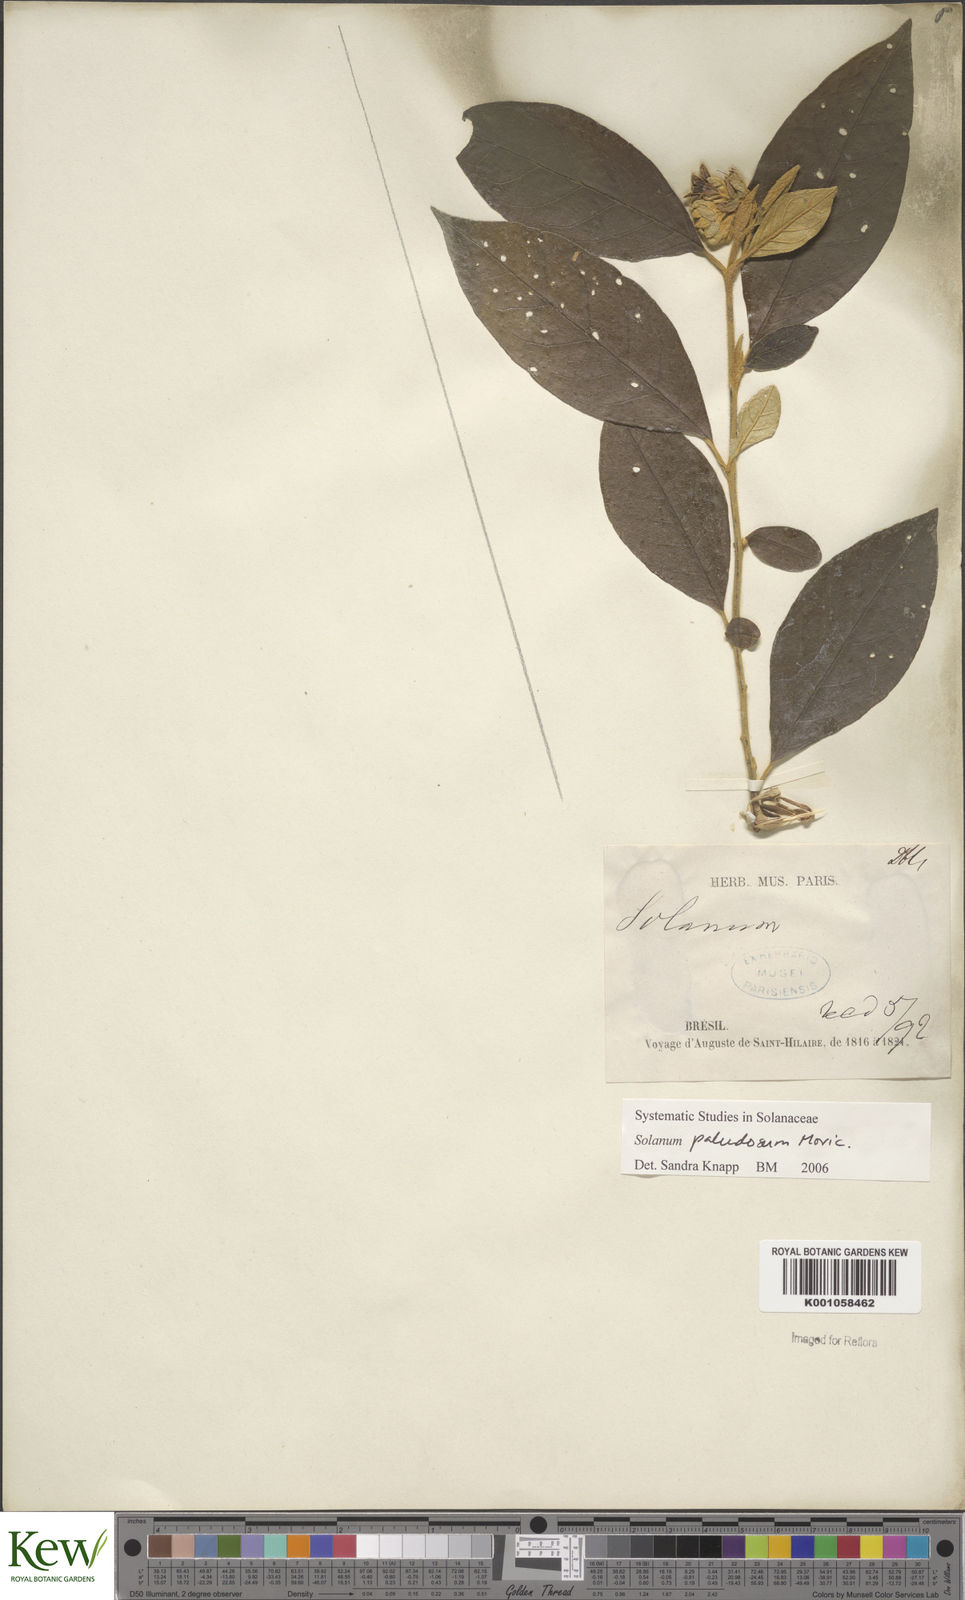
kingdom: Plantae
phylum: Tracheophyta
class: Magnoliopsida
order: Solanales
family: Solanaceae
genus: Solanum
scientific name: Solanum paludosum
